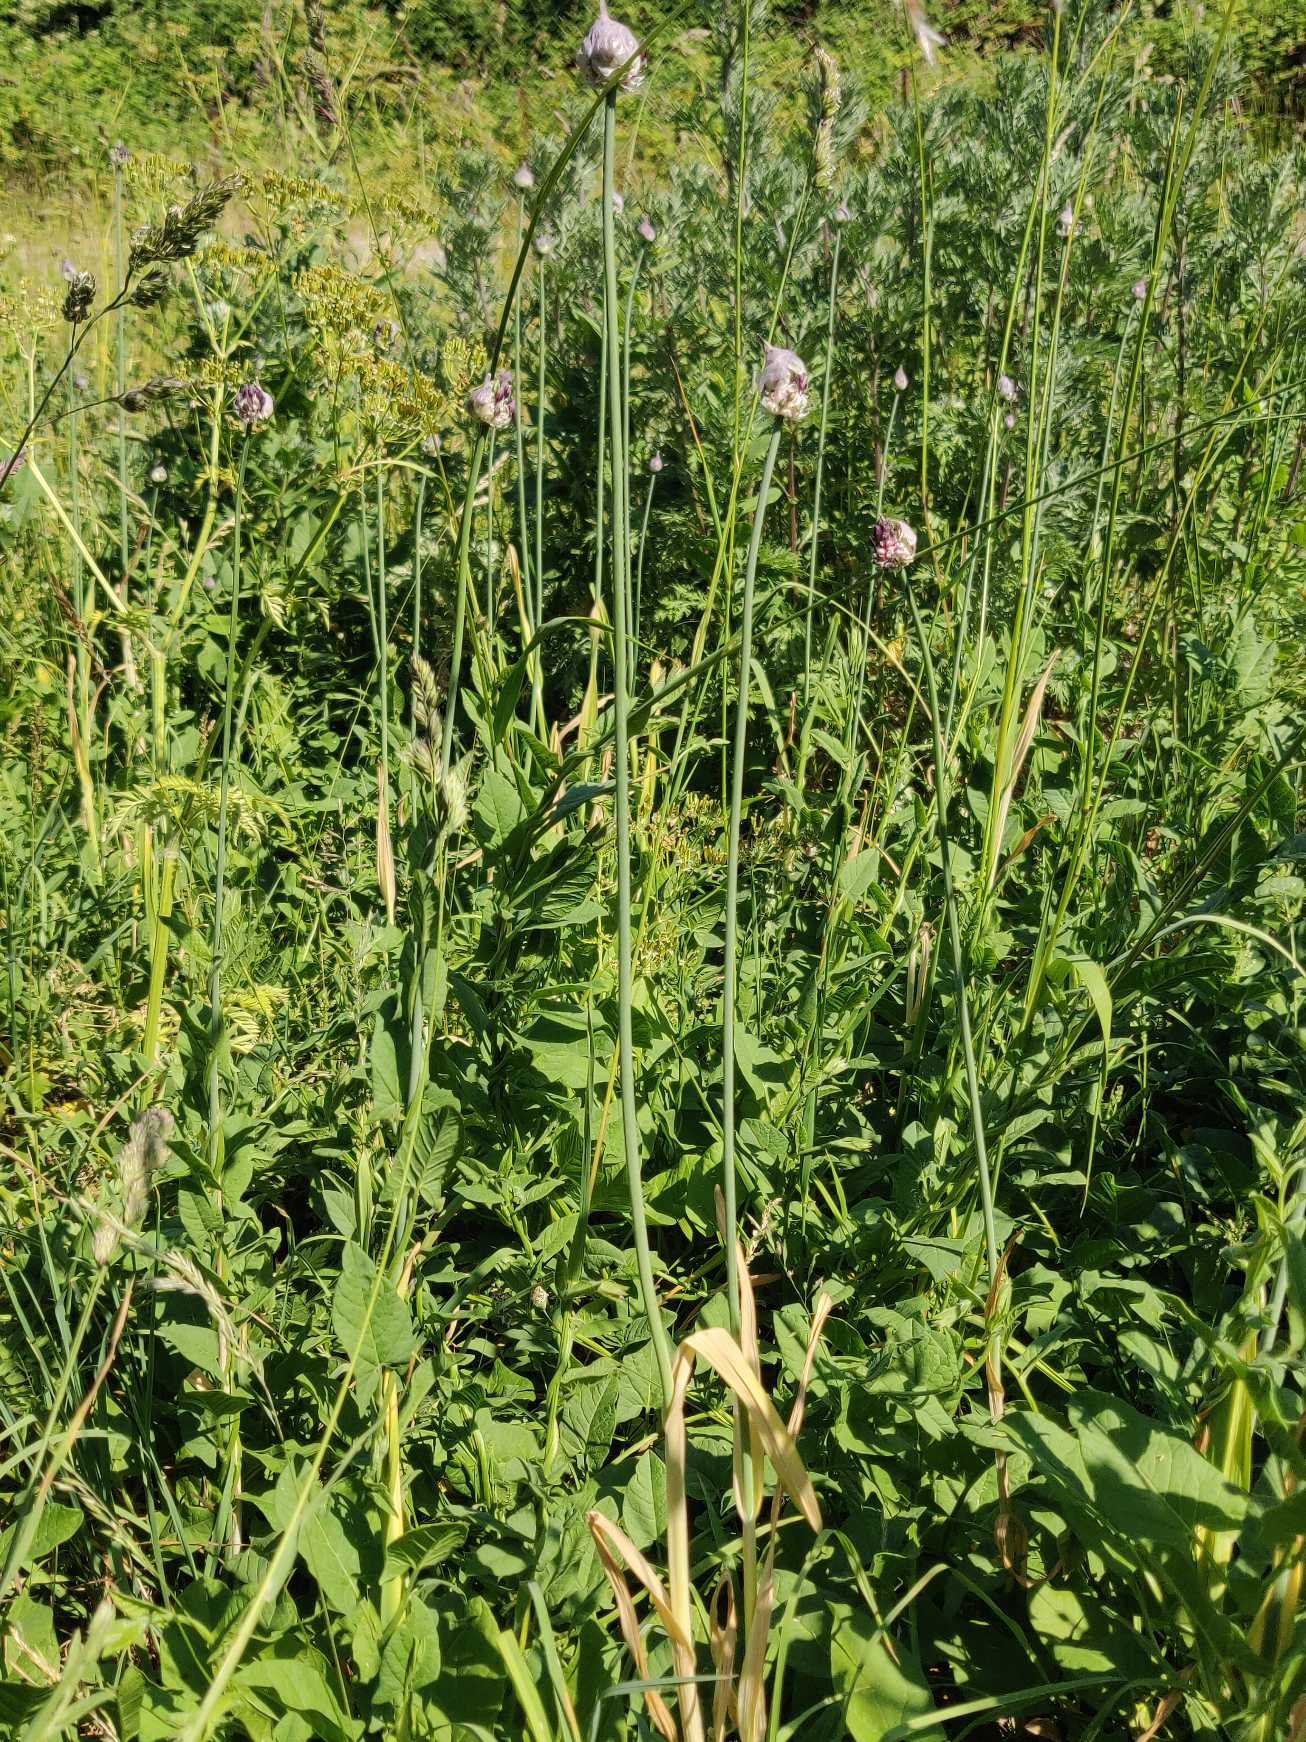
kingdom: Plantae
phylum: Tracheophyta
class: Liliopsida
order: Asparagales
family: Amaryllidaceae
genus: Allium
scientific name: Allium scorodoprasum
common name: Skov-løg
